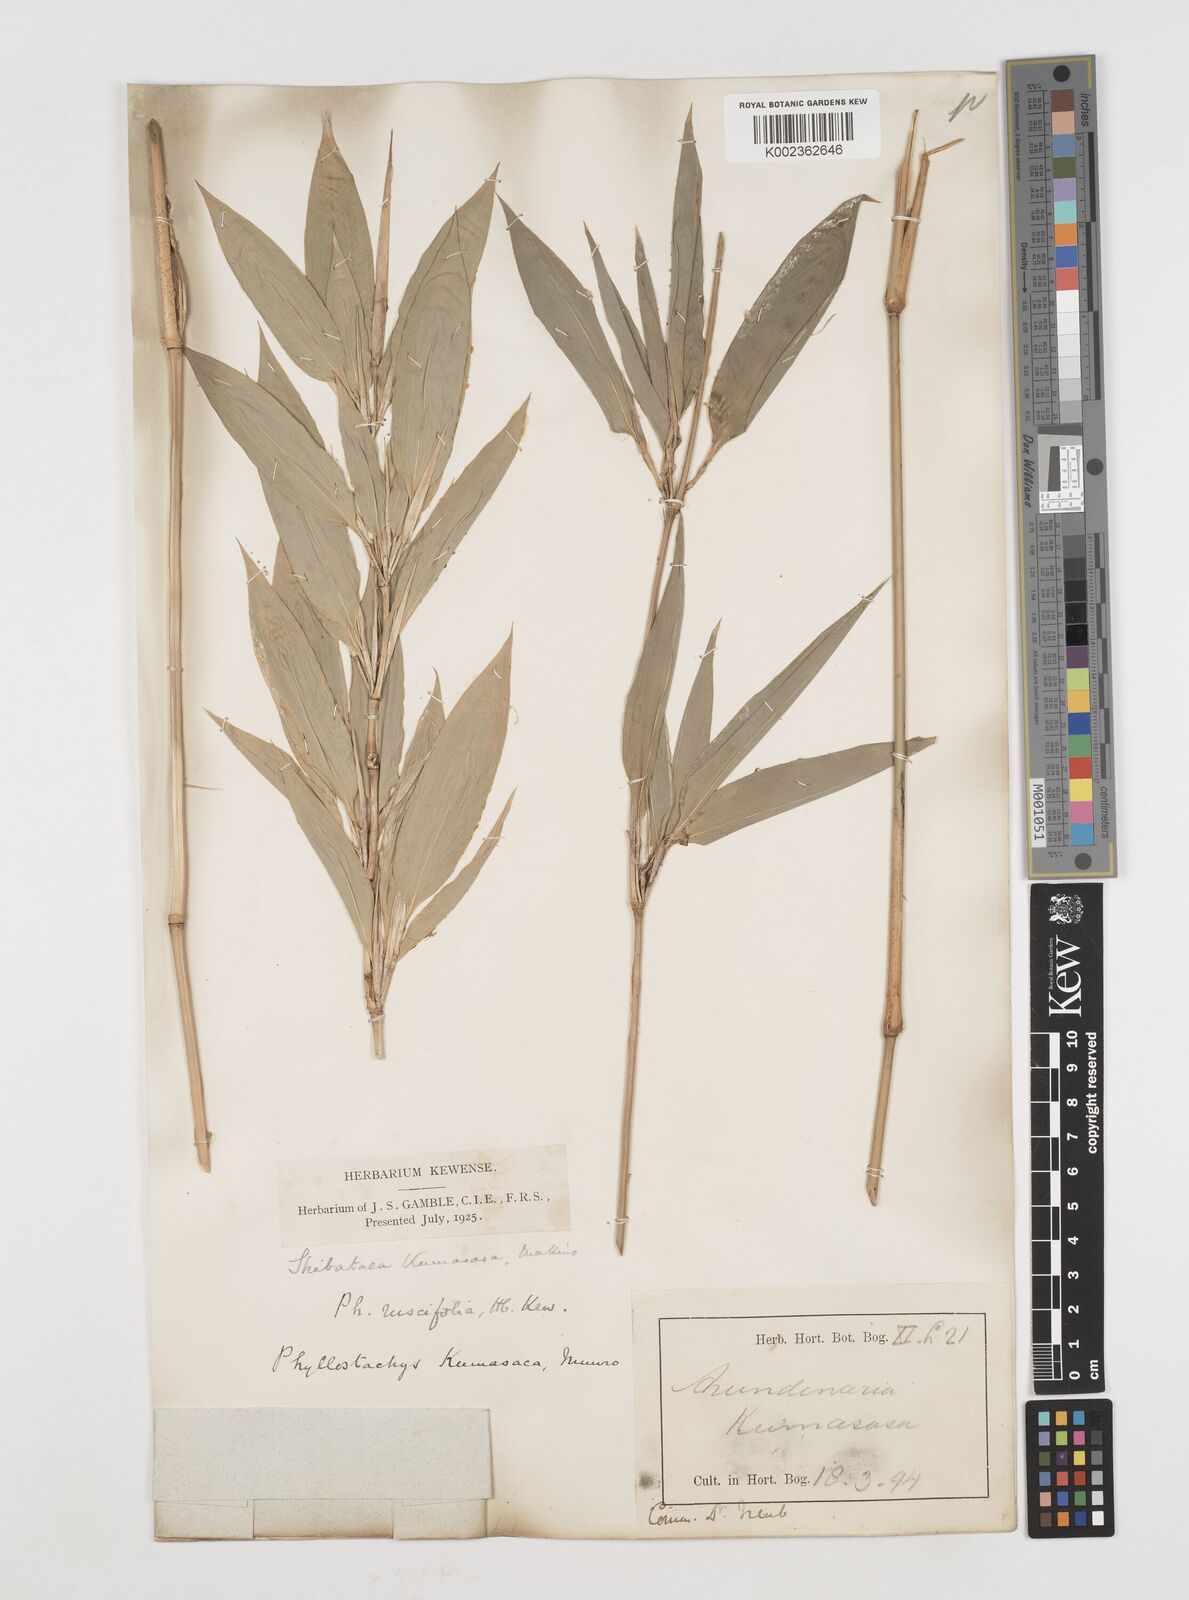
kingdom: Plantae
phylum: Tracheophyta
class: Liliopsida
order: Poales
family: Poaceae
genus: Shibataea
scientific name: Shibataea kumasasa
